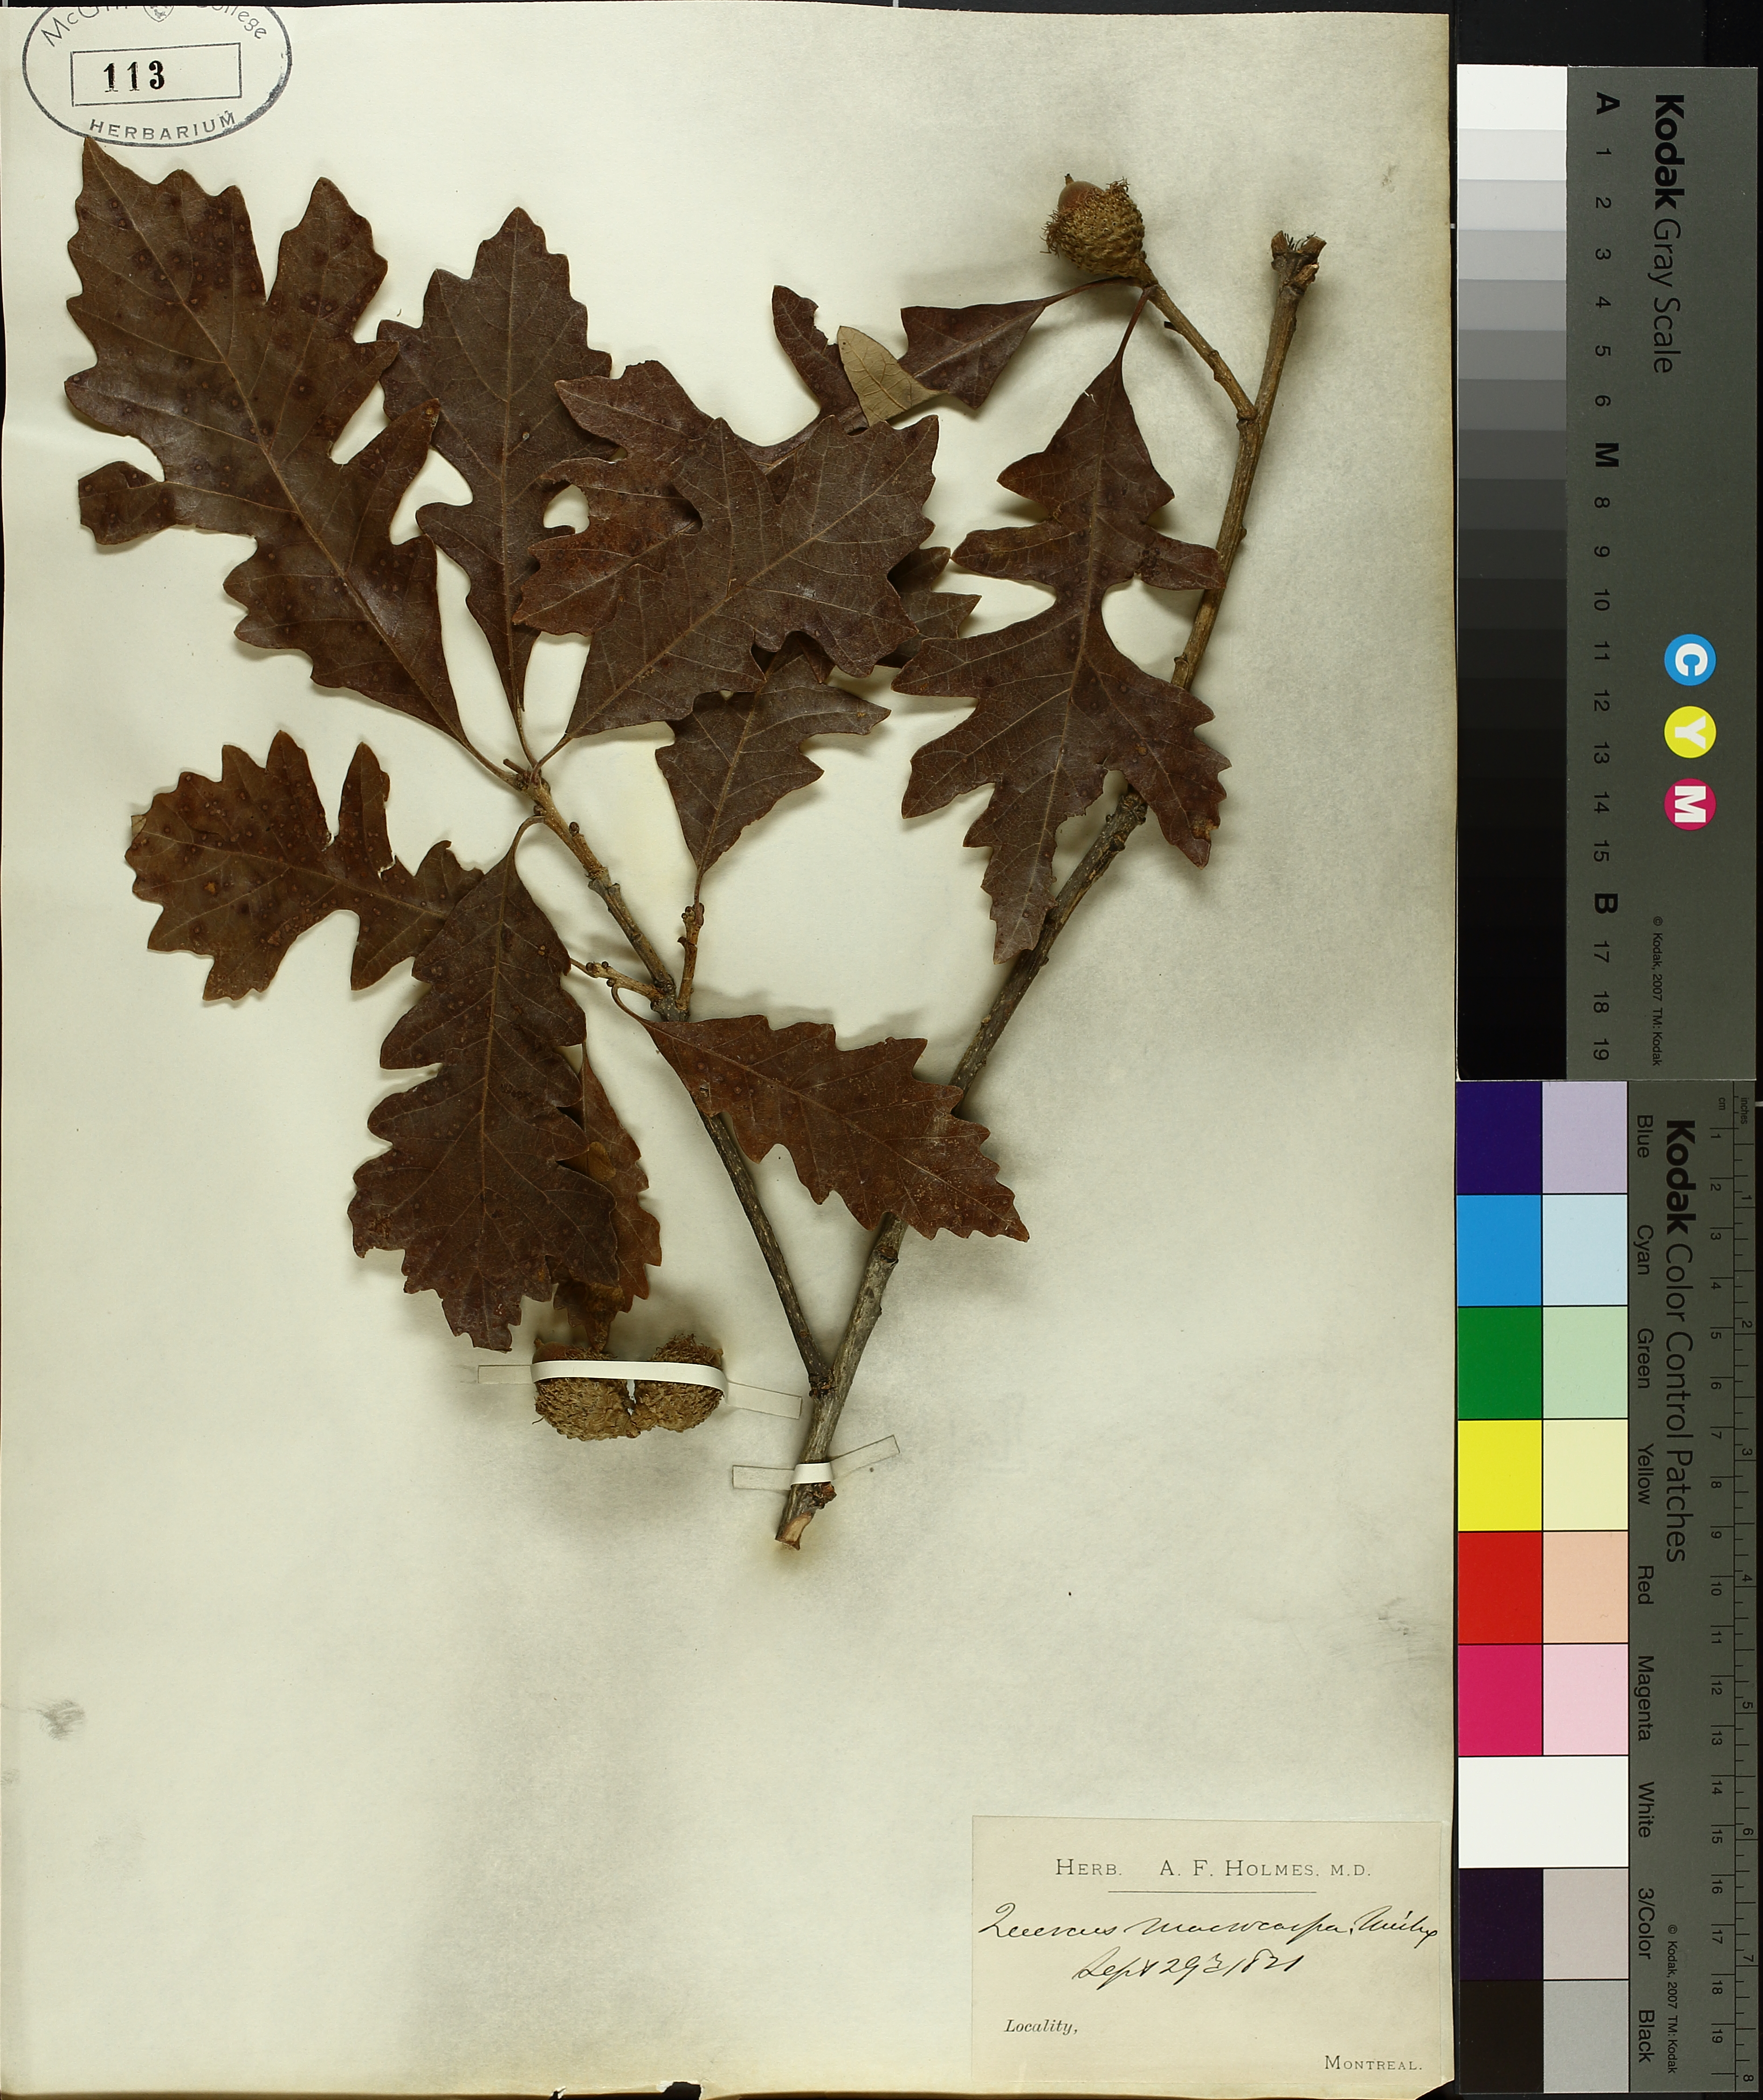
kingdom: Plantae
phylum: Tracheophyta
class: Magnoliopsida
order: Fagales
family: Fagaceae
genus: Quercus
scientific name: Quercus macrocarpa
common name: Bur oak
